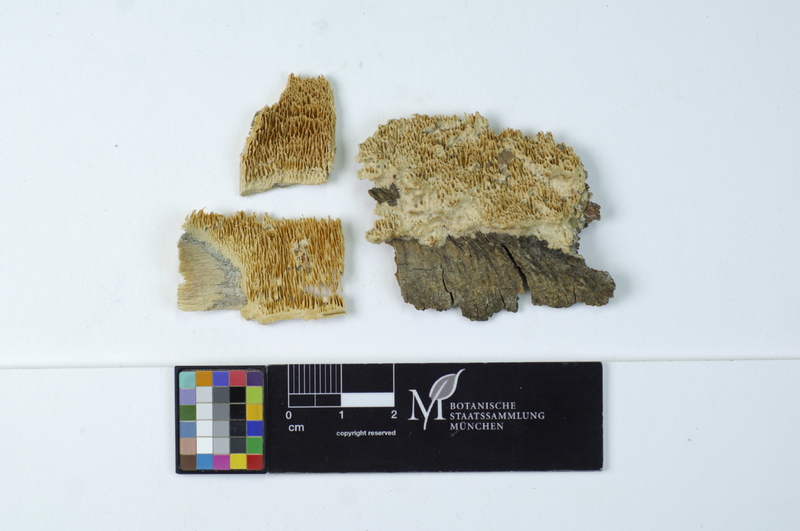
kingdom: Plantae
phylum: Tracheophyta
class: Magnoliopsida
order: Fagales
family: Fagaceae
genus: Fagus
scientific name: Fagus sylvatica
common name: Beech
